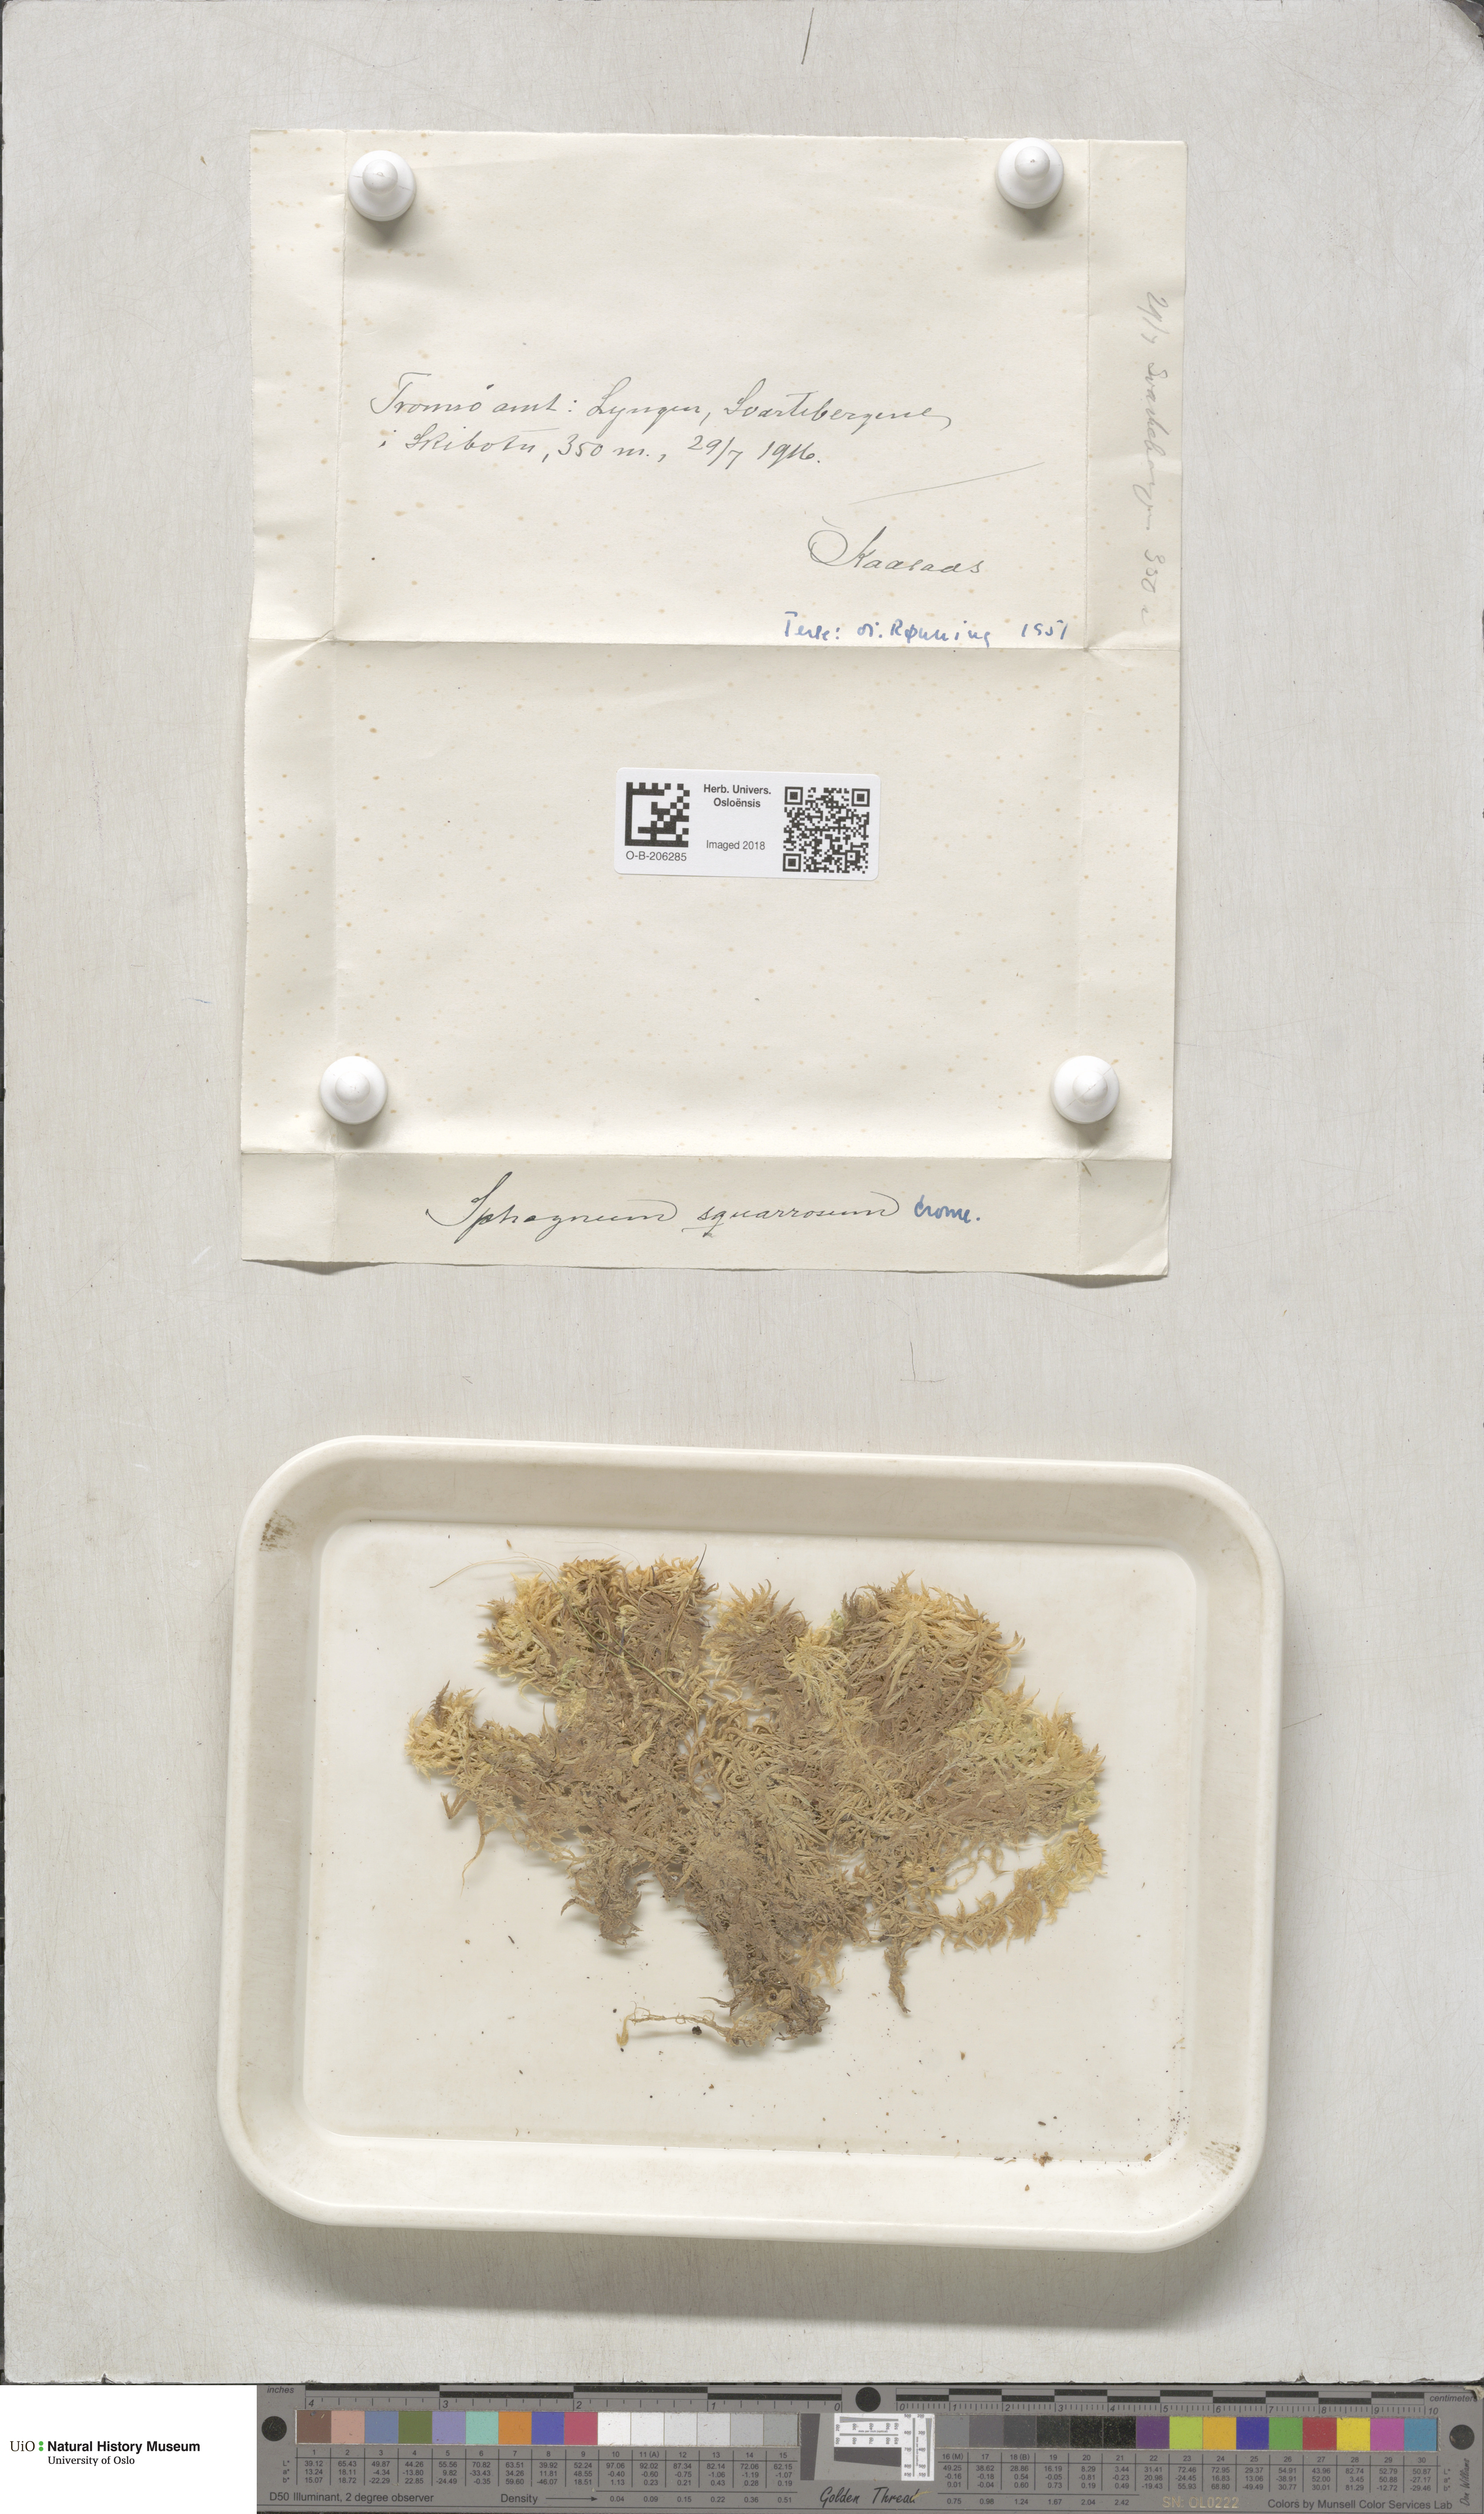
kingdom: Plantae
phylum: Bryophyta
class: Sphagnopsida
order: Sphagnales
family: Sphagnaceae
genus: Sphagnum
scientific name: Sphagnum squarrosum
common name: Shaggy peat moss
